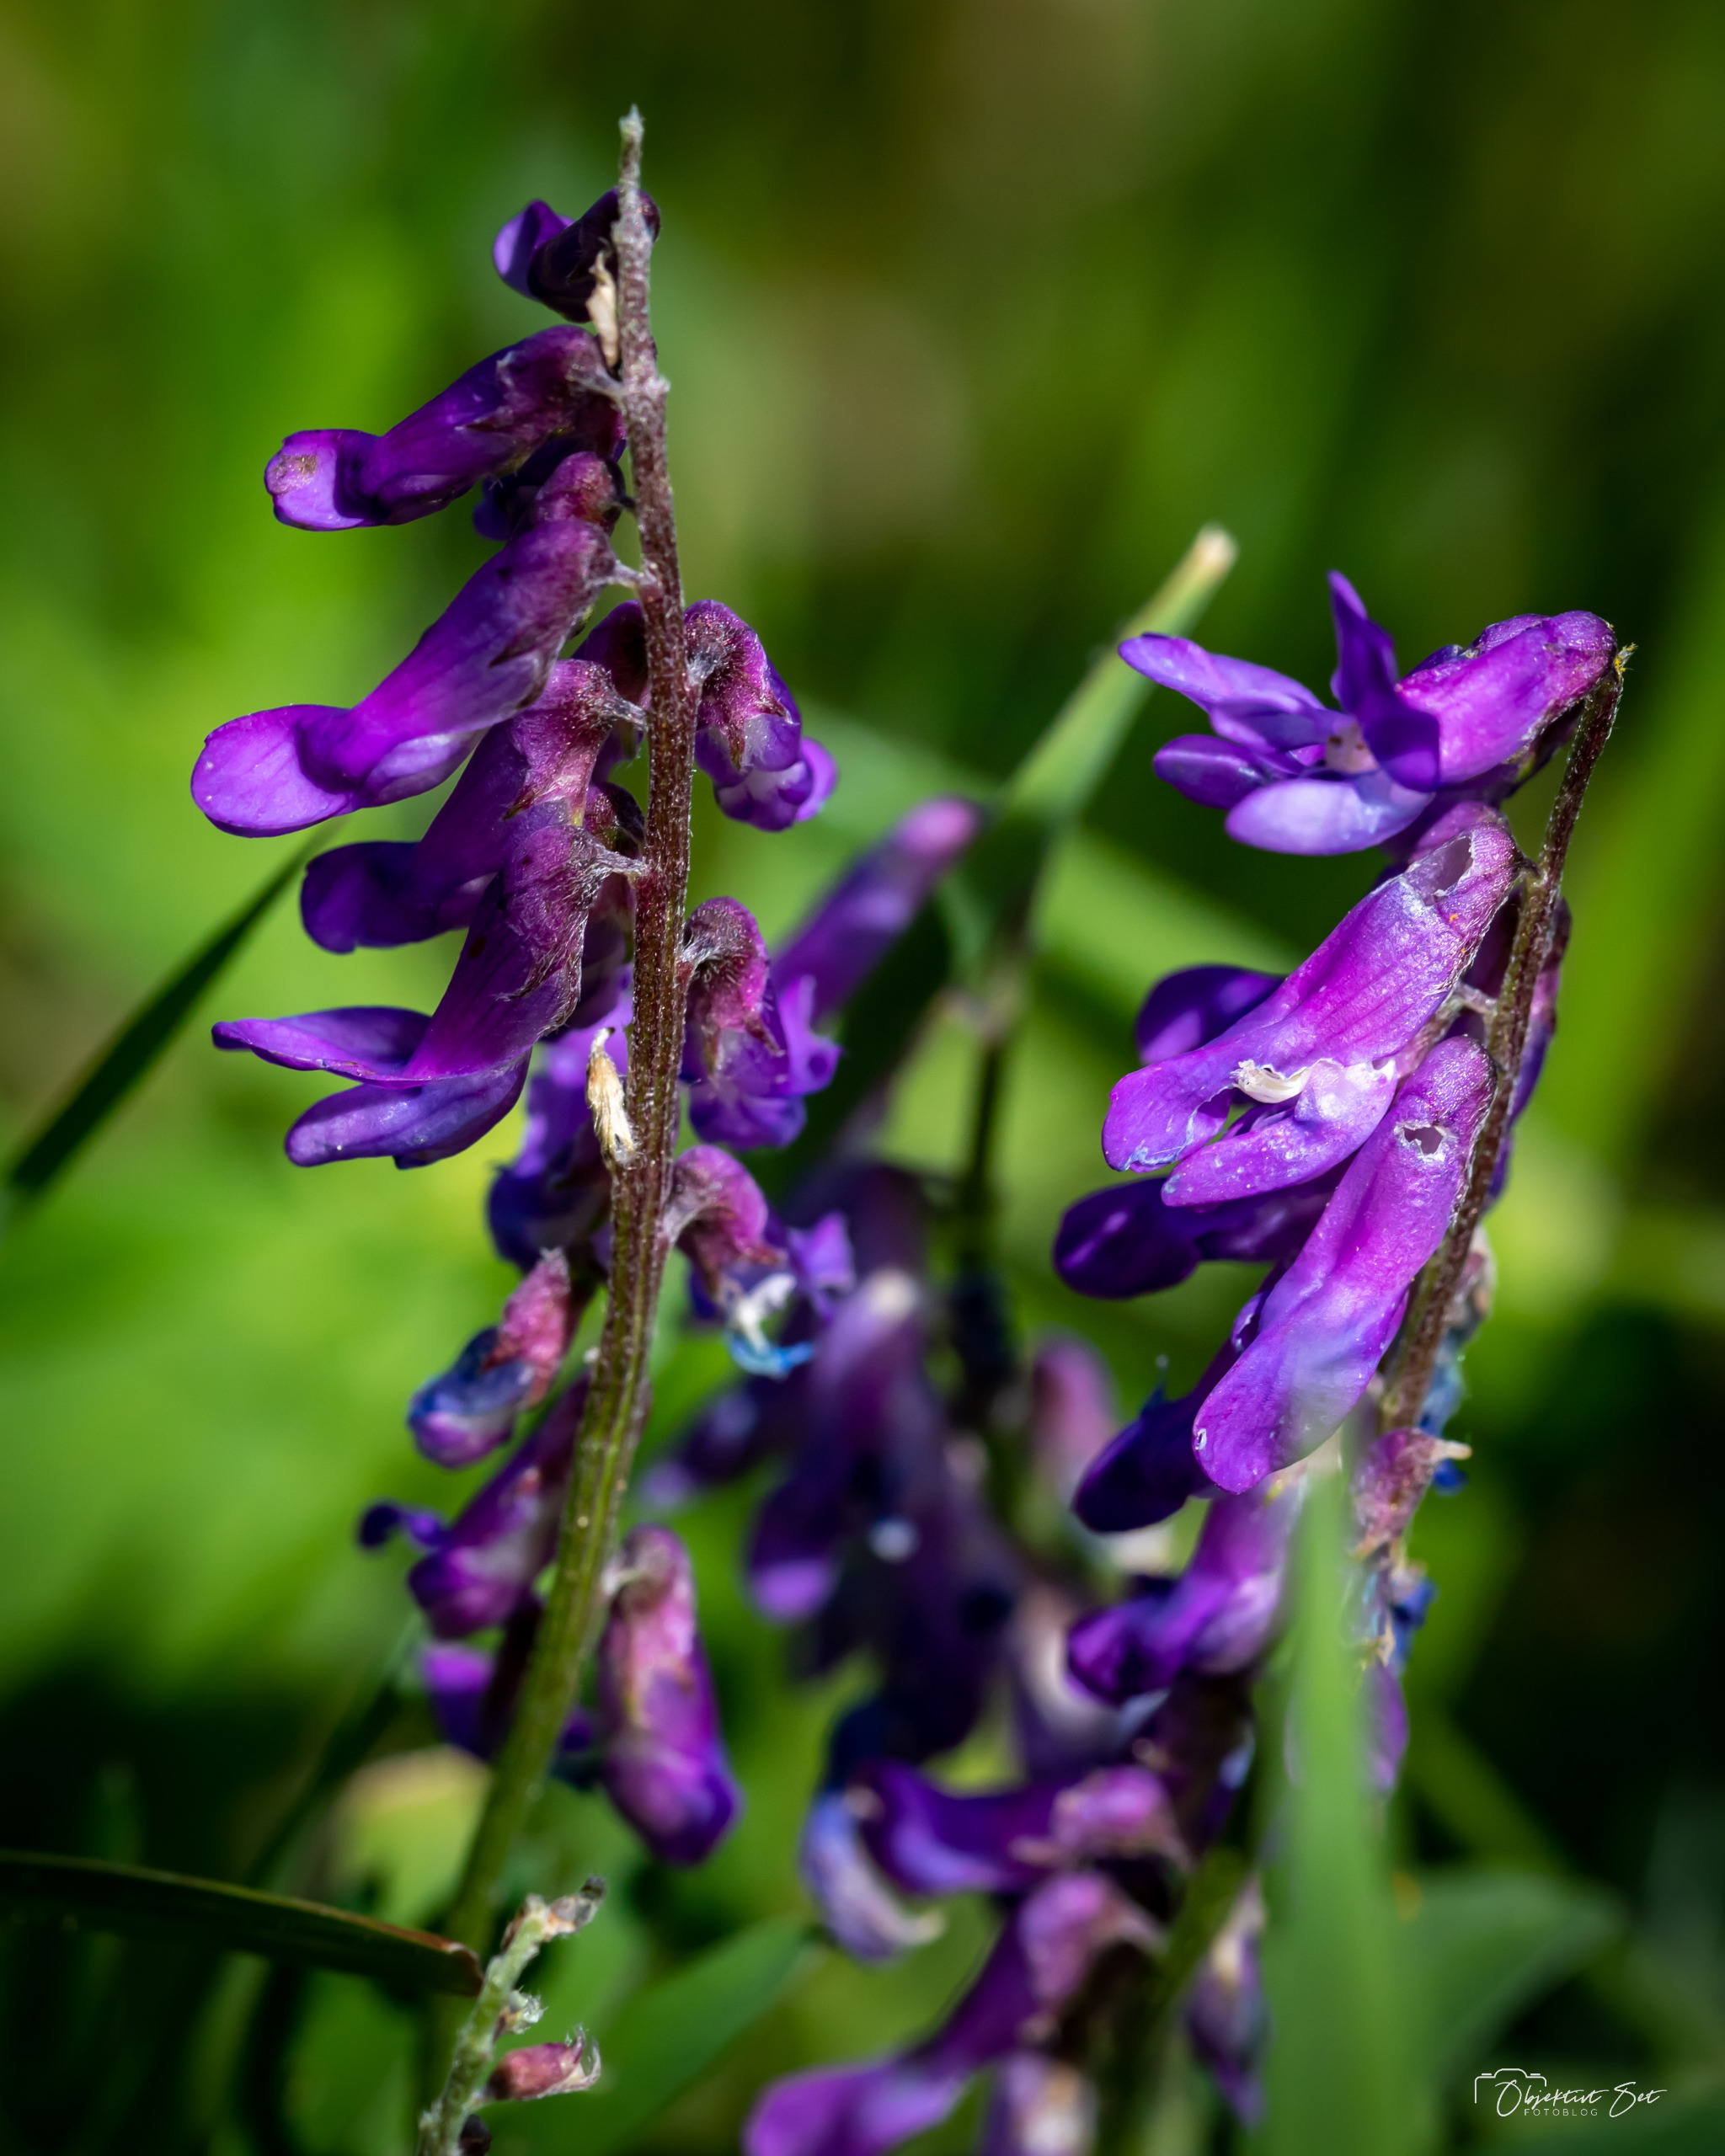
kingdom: Plantae
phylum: Tracheophyta
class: Magnoliopsida
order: Fabales
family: Fabaceae
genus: Vicia
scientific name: Vicia cracca
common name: Muse-vikke
